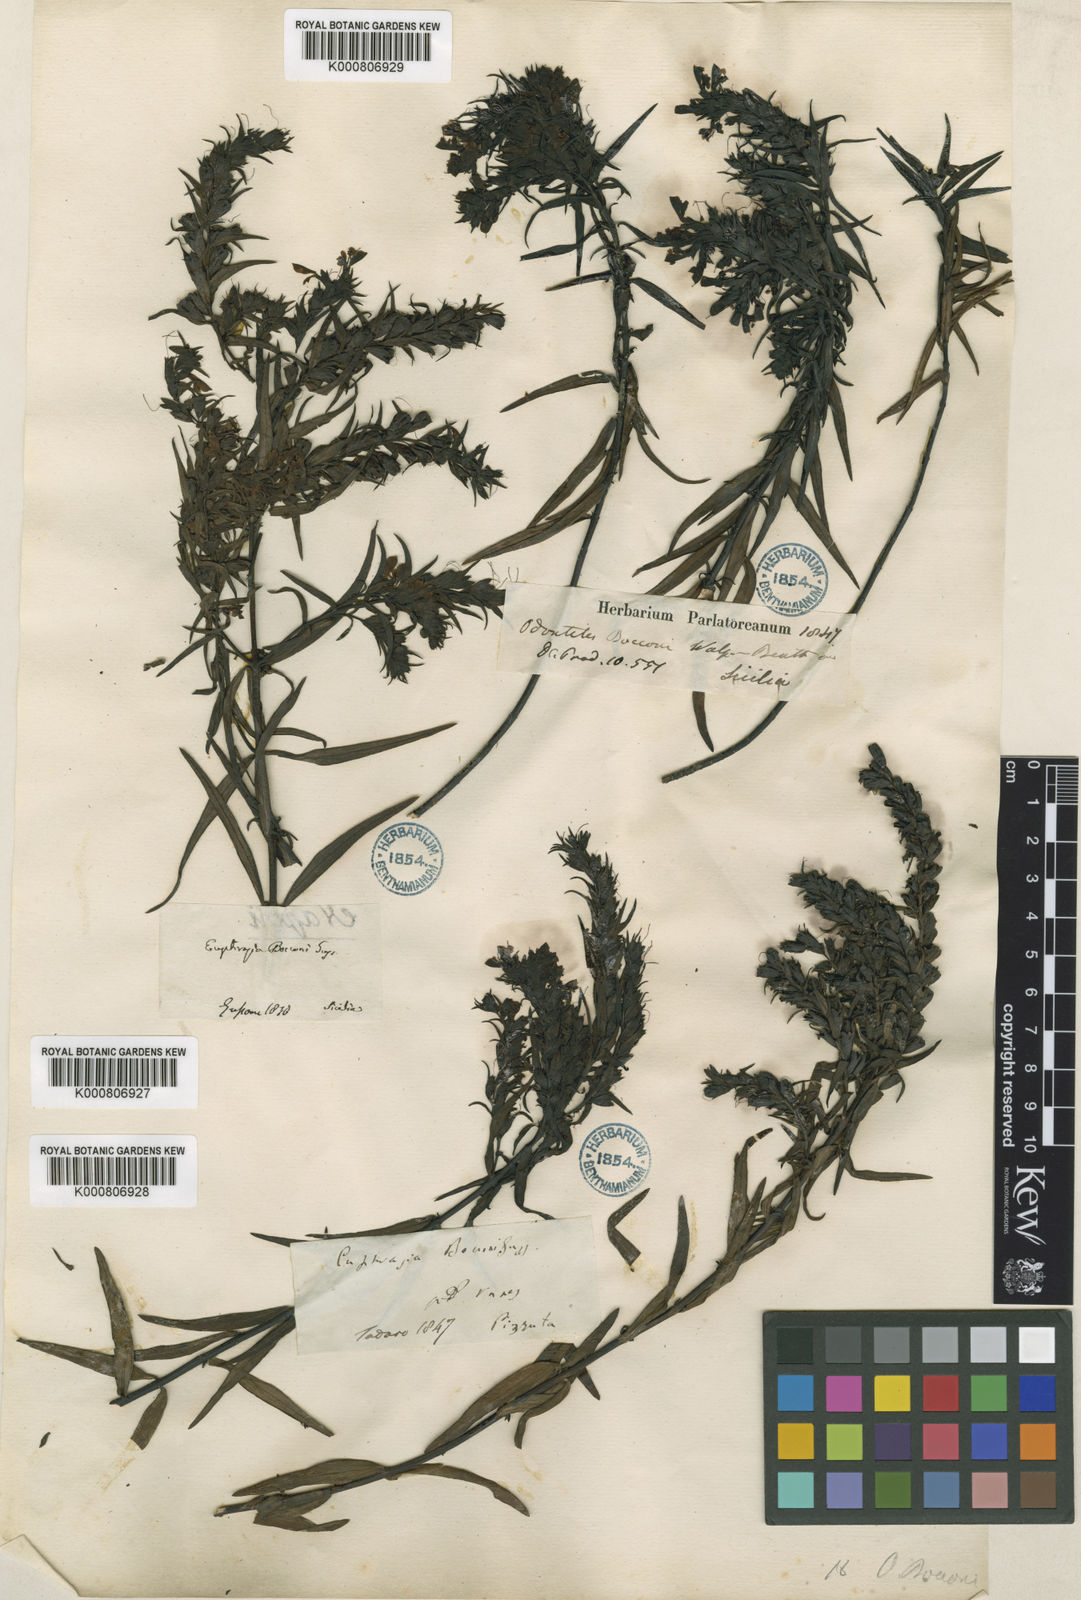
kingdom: Plantae
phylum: Tracheophyta
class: Magnoliopsida
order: Lamiales
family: Orobanchaceae
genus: Odontites
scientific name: Odontites bocconei
